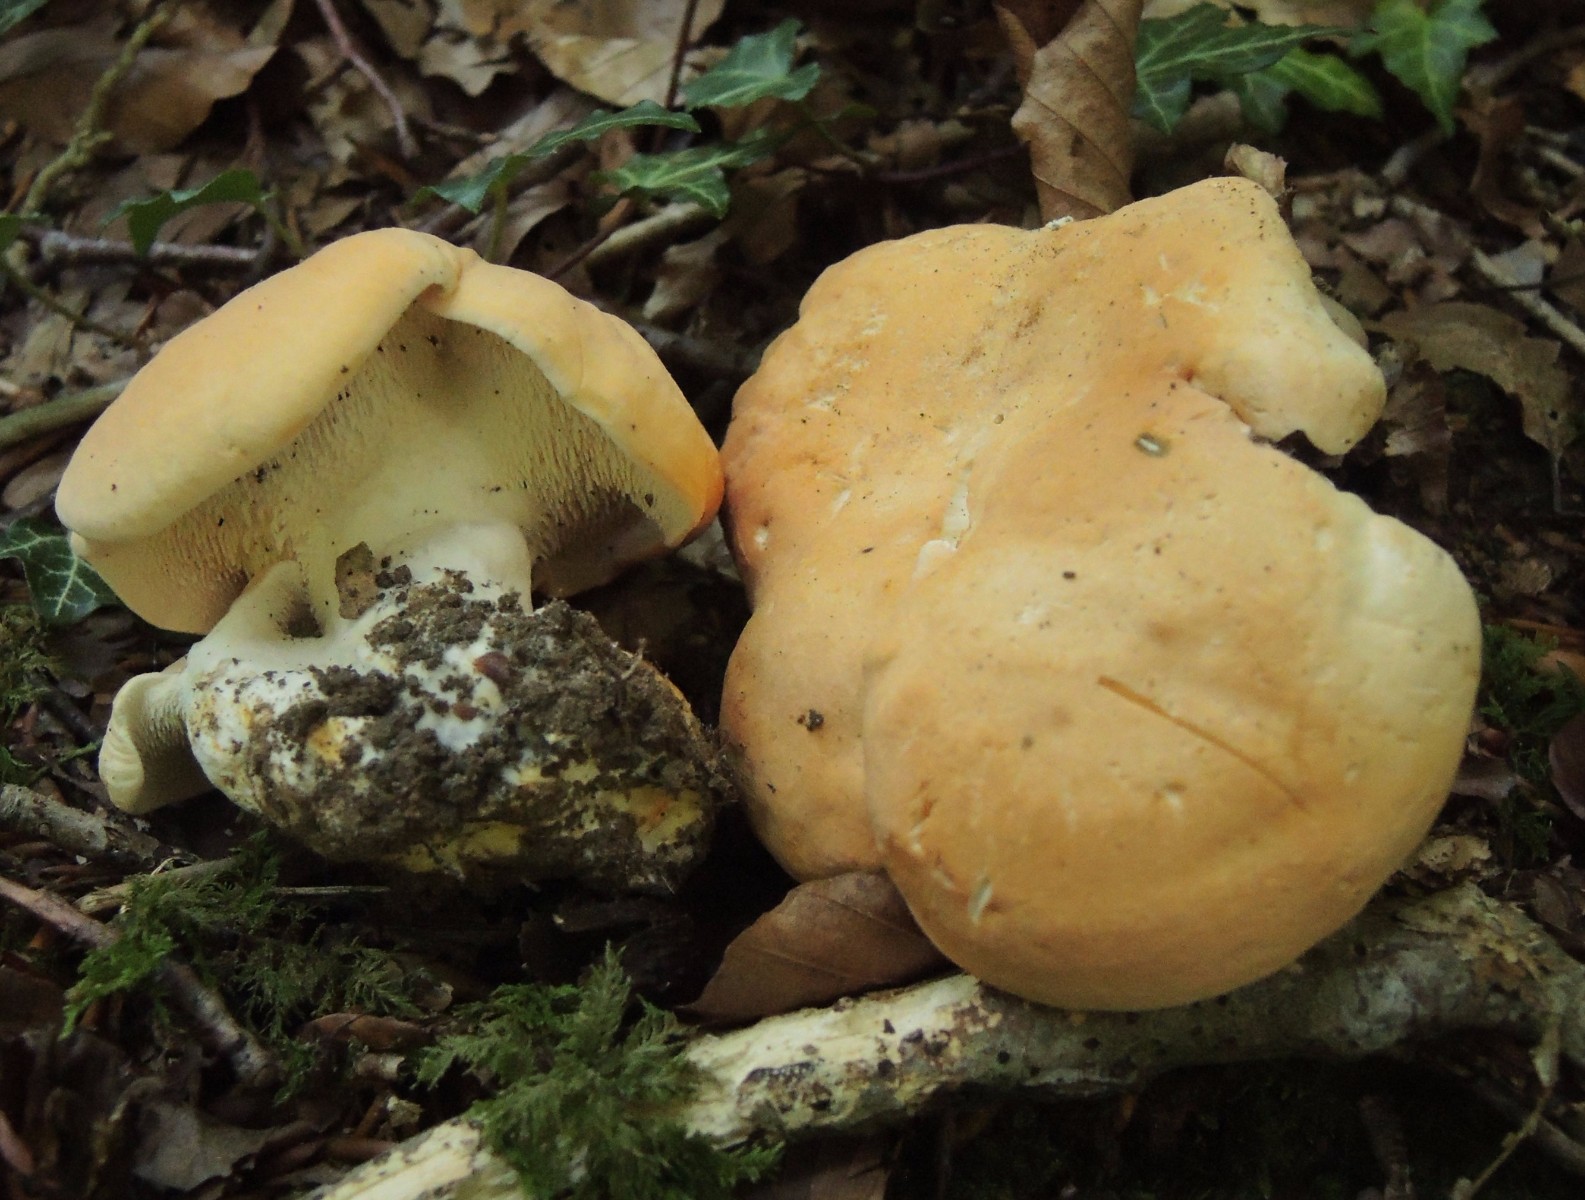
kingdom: Fungi
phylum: Basidiomycota
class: Agaricomycetes
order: Cantharellales
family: Hydnaceae
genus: Hydnum
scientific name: Hydnum slovenicum
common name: slovensk pigsvamp
